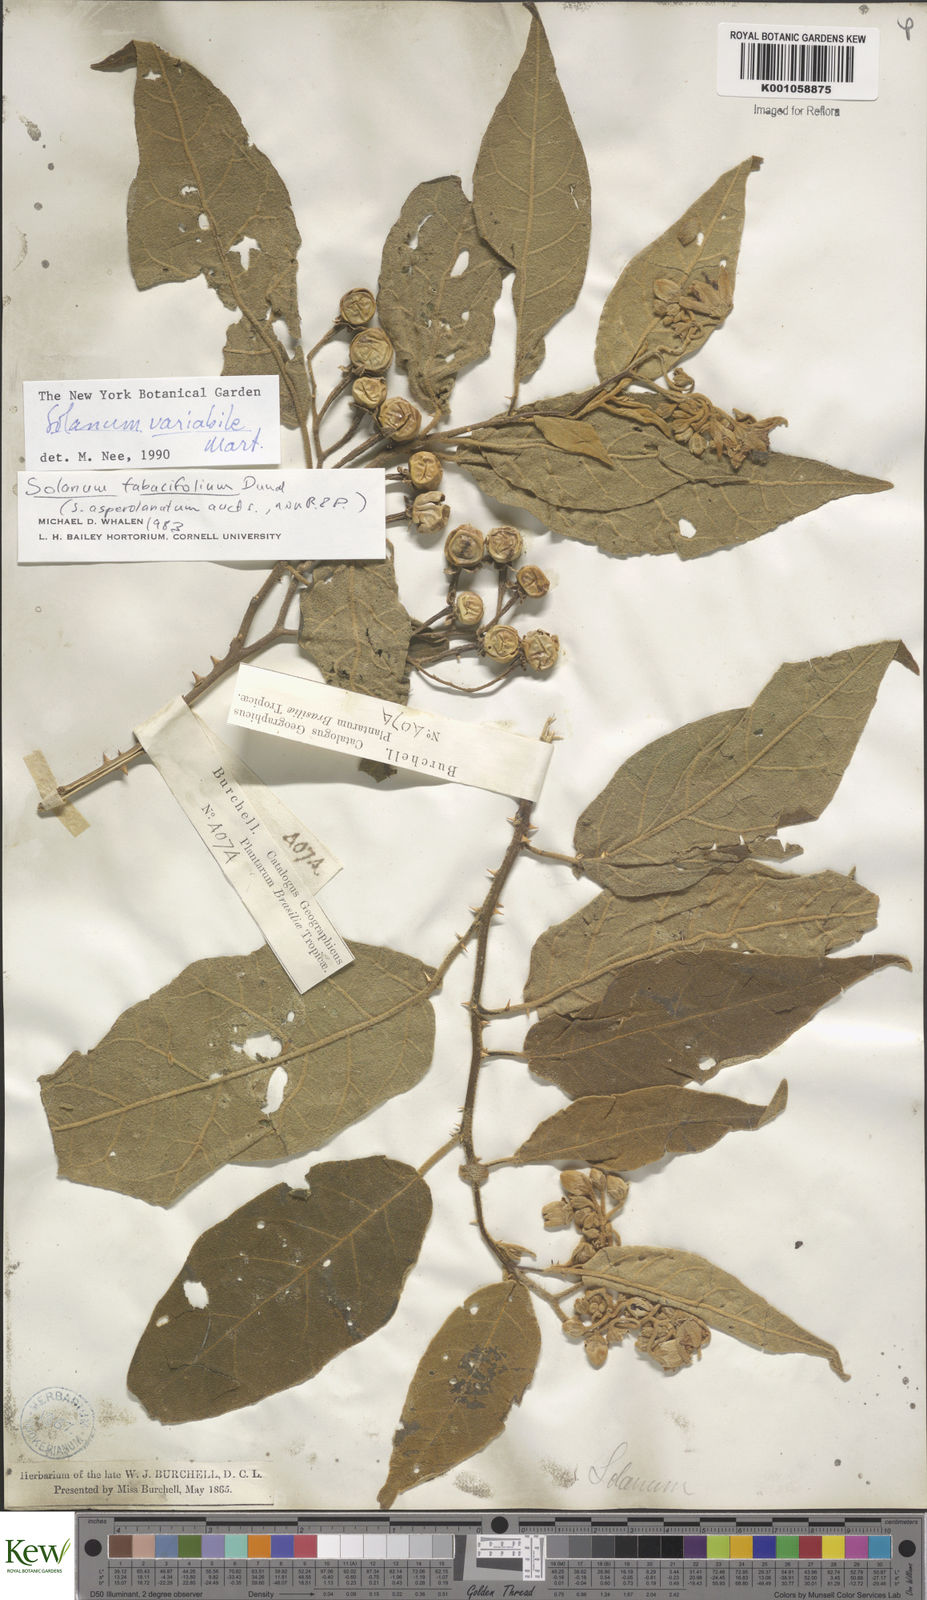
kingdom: Plantae
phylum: Tracheophyta
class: Magnoliopsida
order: Solanales
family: Solanaceae
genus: Solanum
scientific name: Solanum variabile
